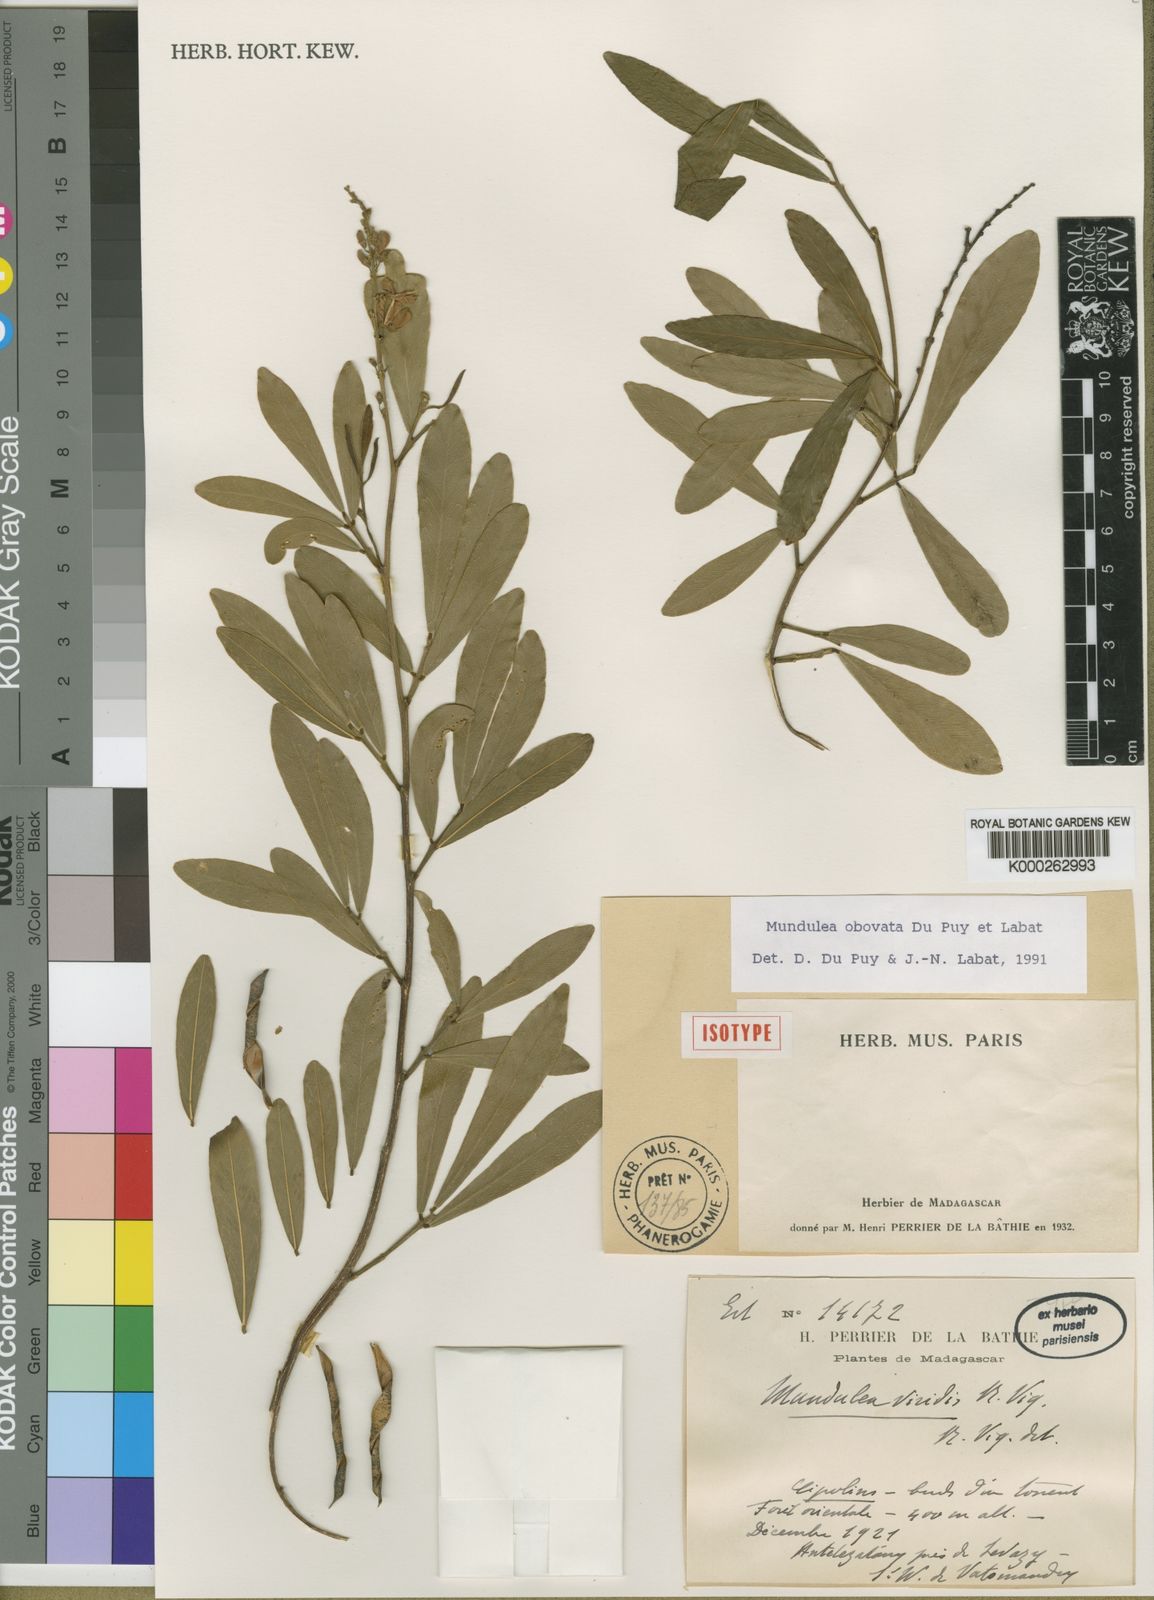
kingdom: Plantae
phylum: Tracheophyta
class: Magnoliopsida
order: Fabales
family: Fabaceae
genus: Mundulea
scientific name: Mundulea obovata
